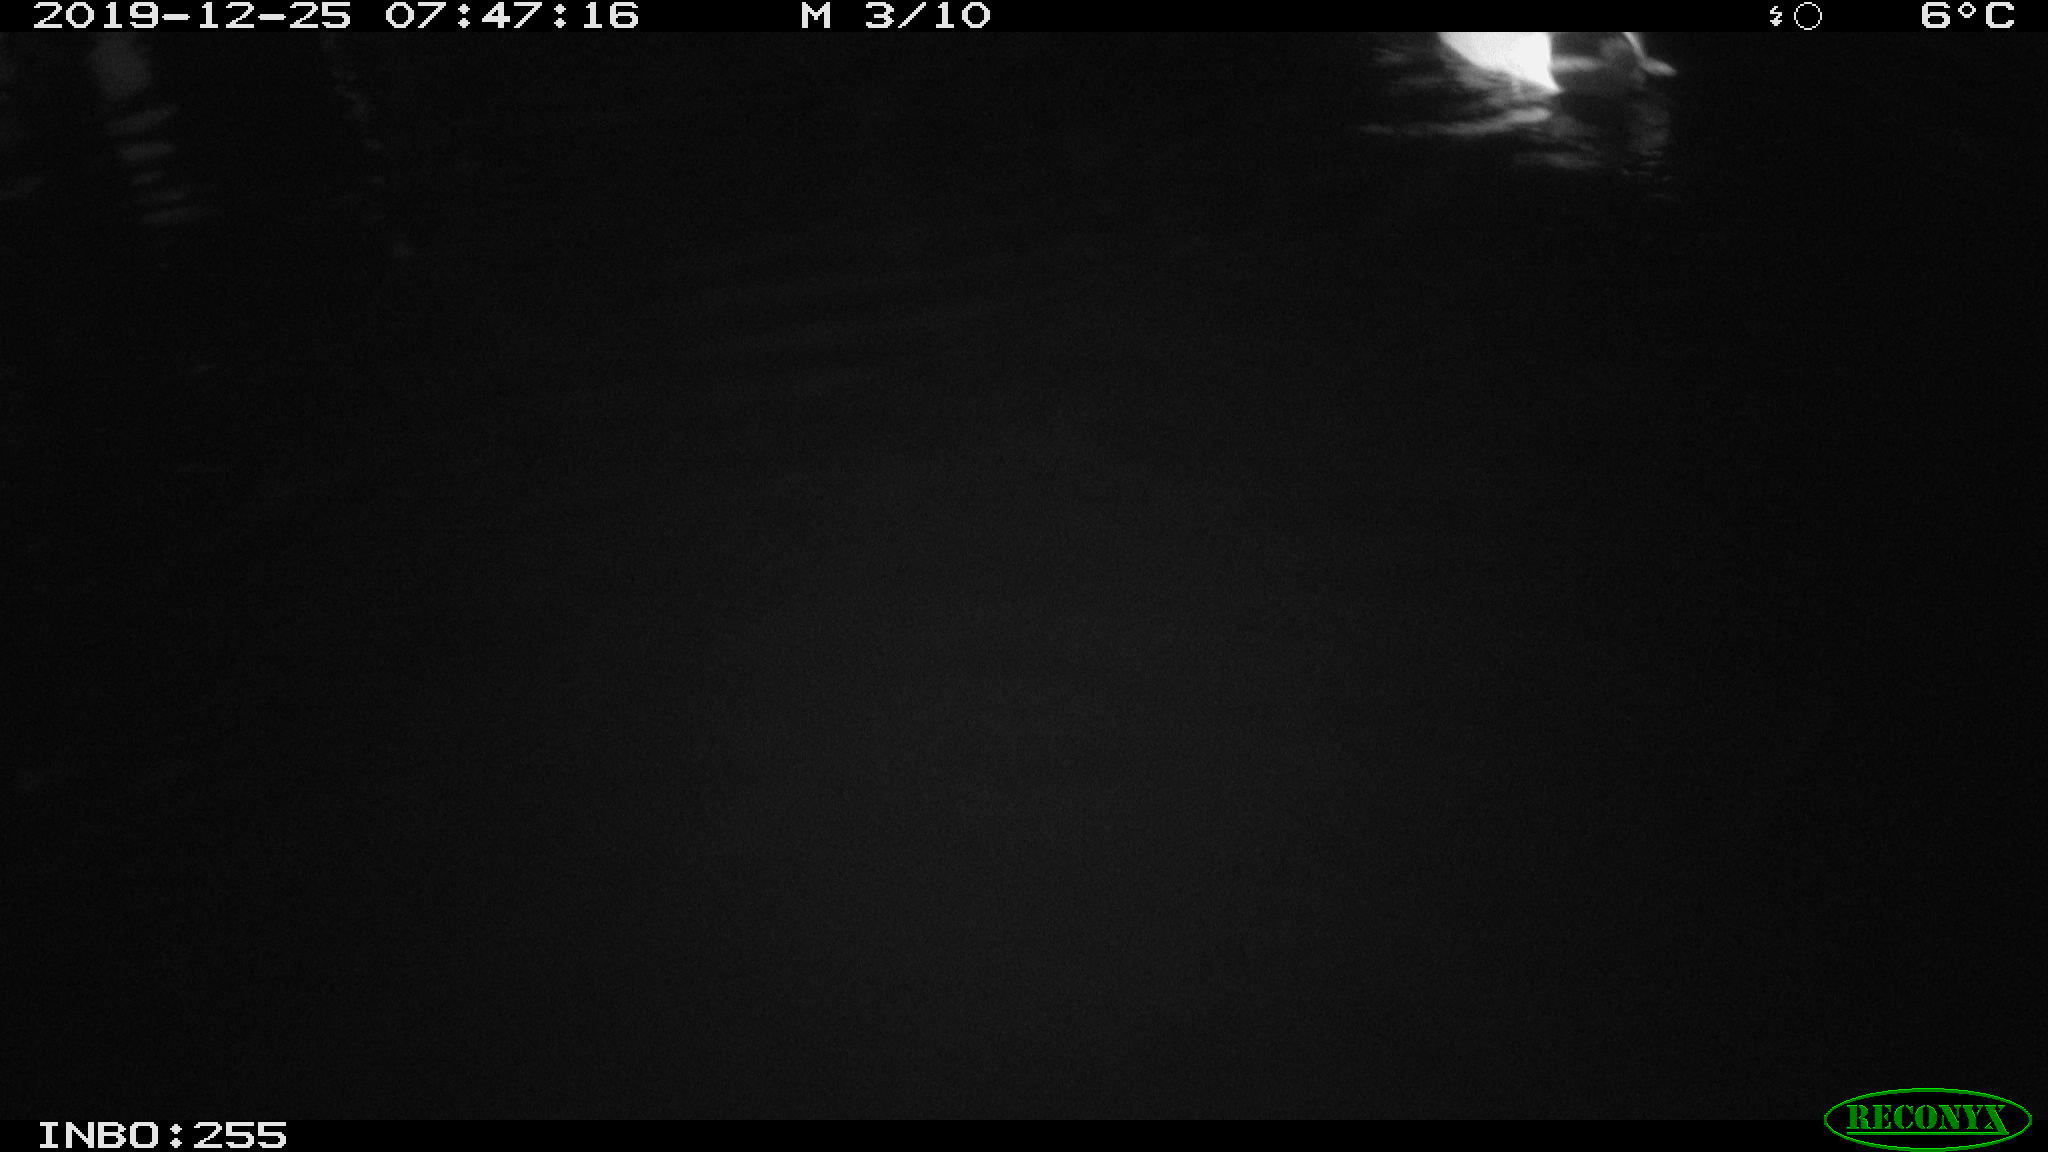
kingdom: Animalia
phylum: Chordata
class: Aves
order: Anseriformes
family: Anatidae
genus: Anas
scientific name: Anas platyrhynchos
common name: Mallard
